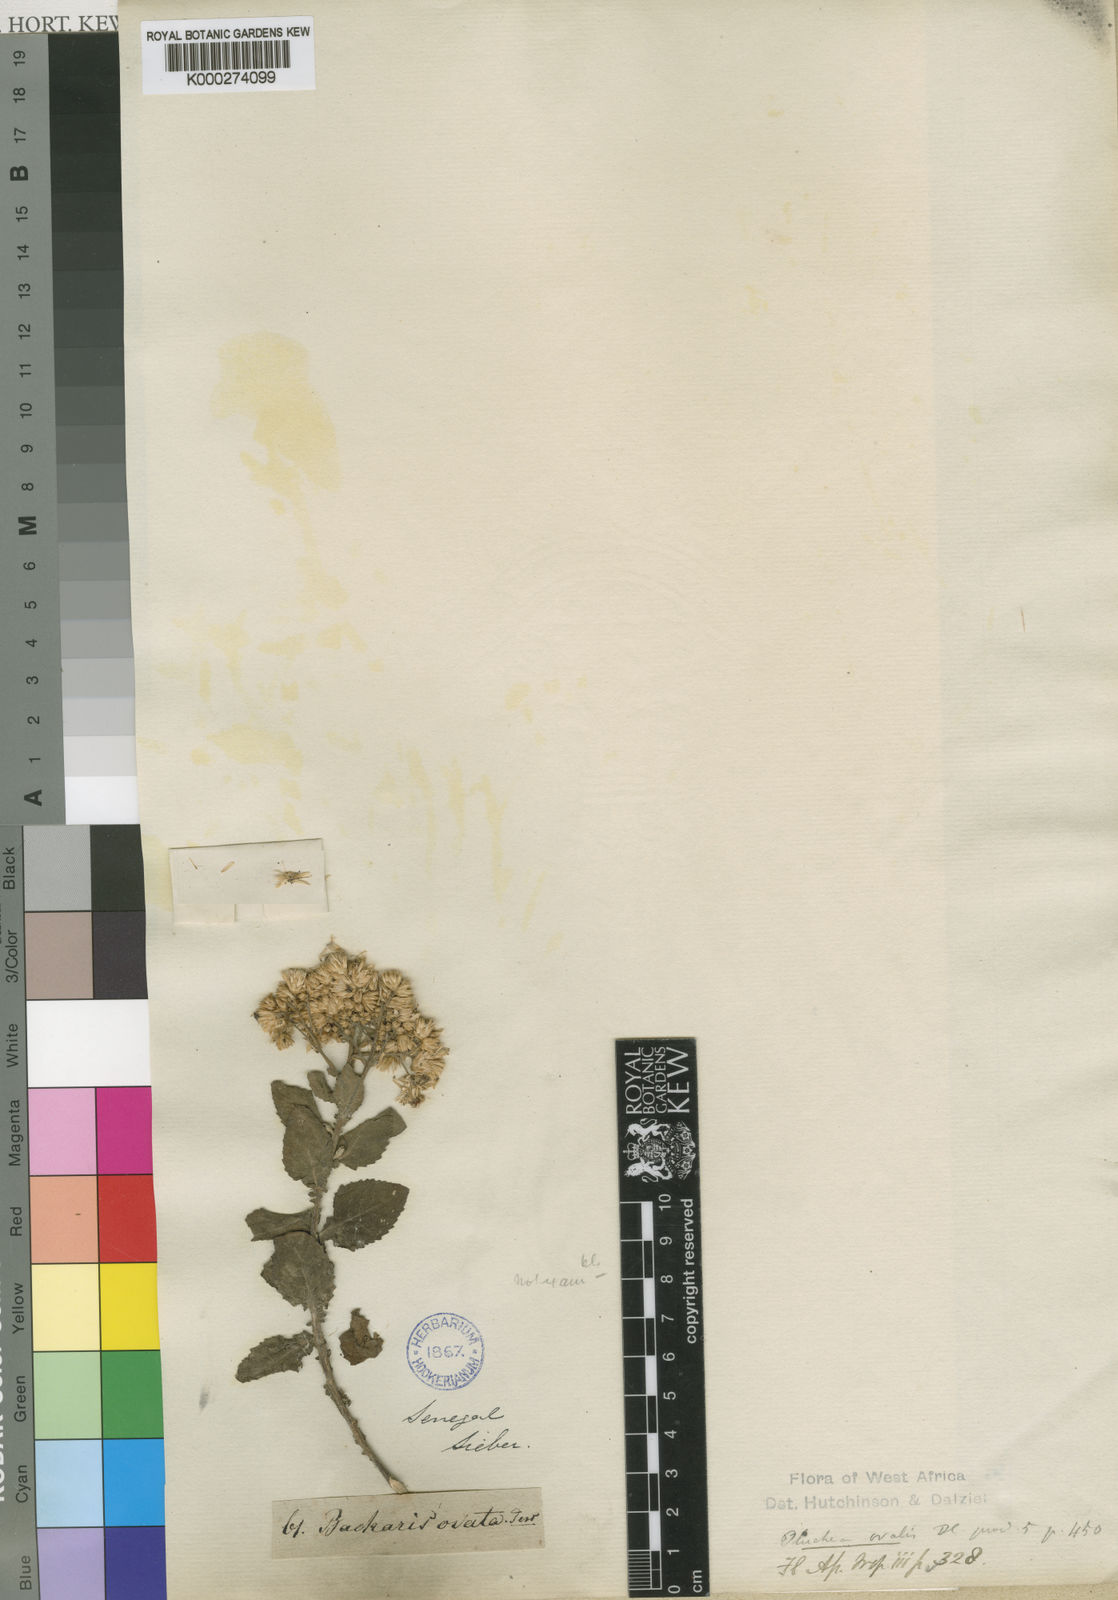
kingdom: Plantae
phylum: Tracheophyta
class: Magnoliopsida
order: Asterales
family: Asteraceae
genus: Baccharis
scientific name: Baccharis
